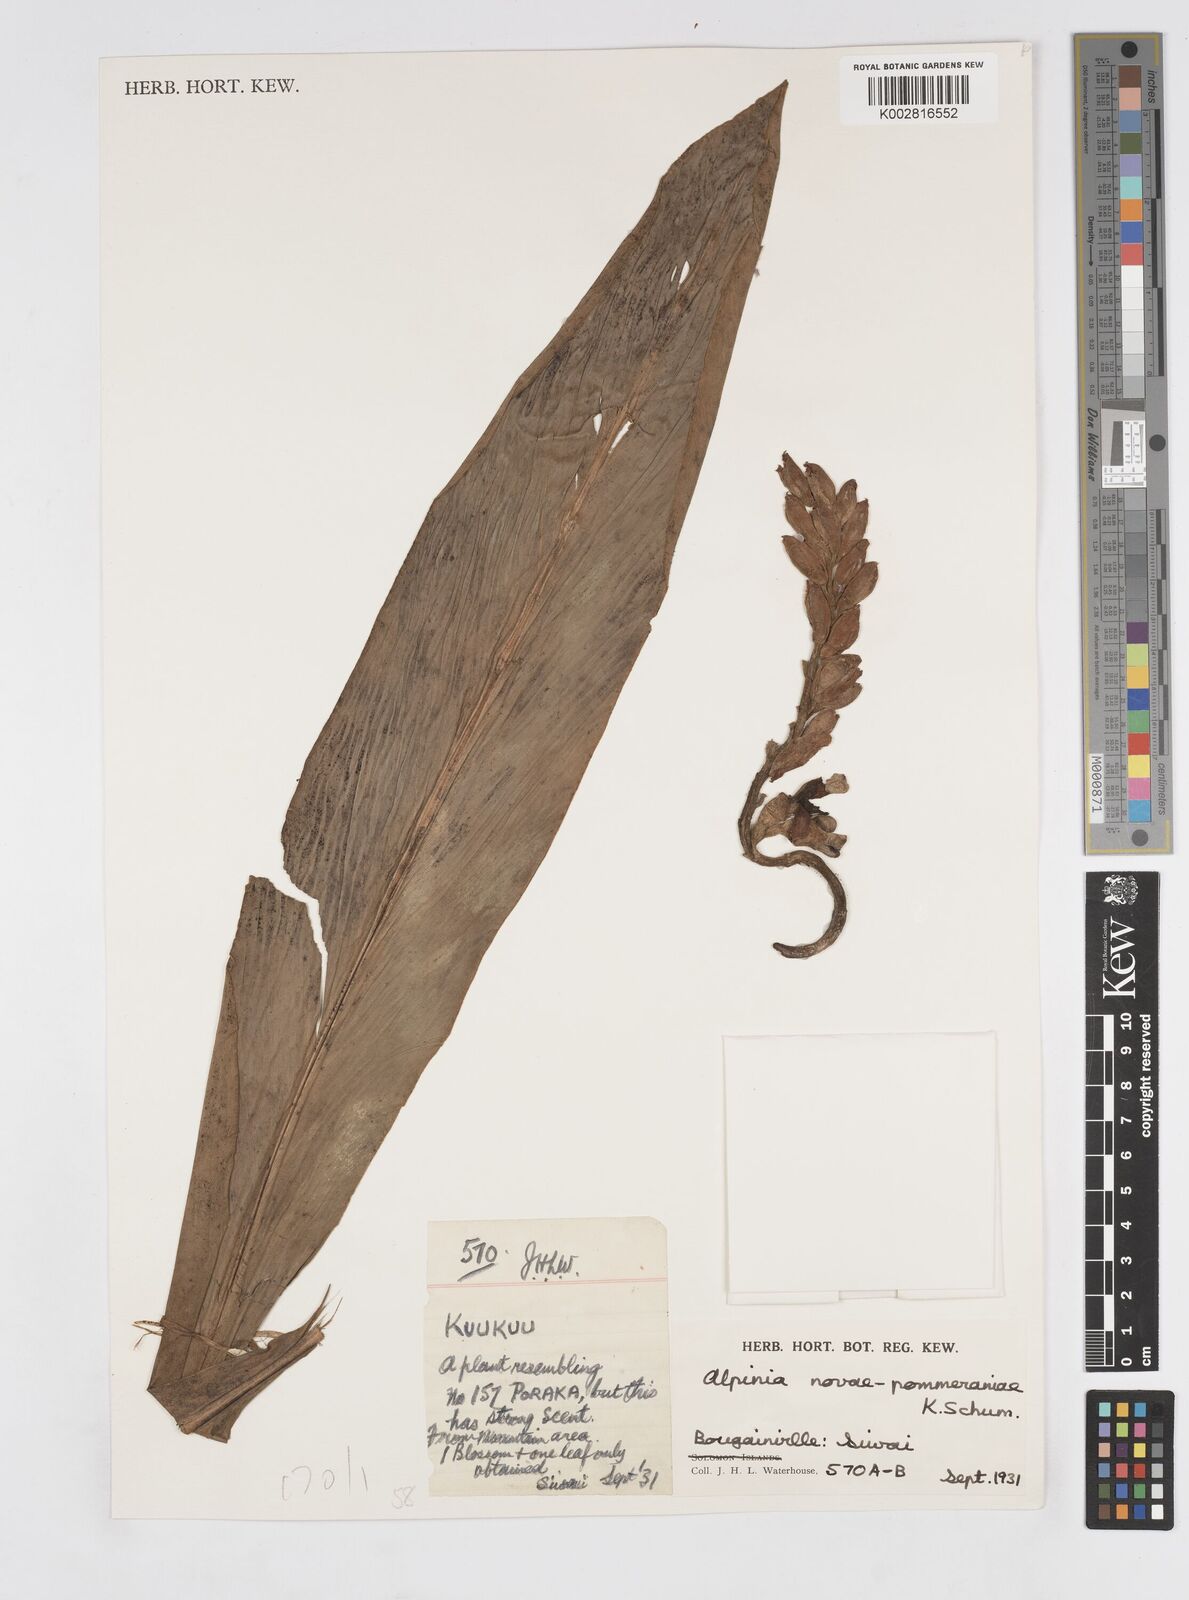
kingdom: Plantae
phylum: Tracheophyta
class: Liliopsida
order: Zingiberales
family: Zingiberaceae
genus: Alpinia
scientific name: Alpinia novae-pommeraniae
